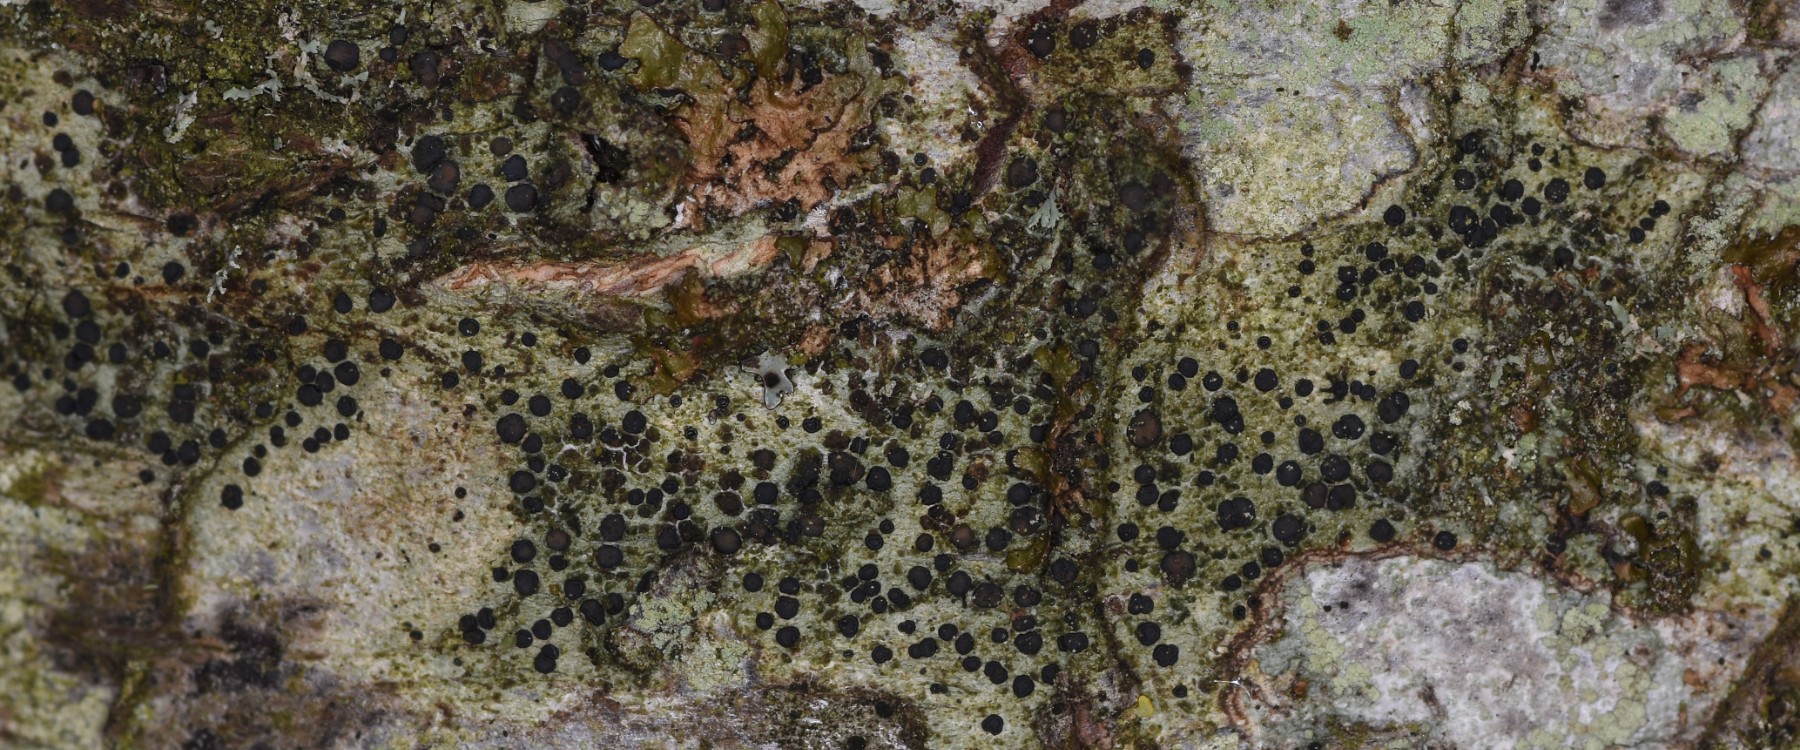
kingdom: Fungi
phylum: Ascomycota
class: Lecanoromycetes
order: Lecanorales
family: Lecanoraceae
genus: Lecidella
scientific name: Lecidella elaeochroma
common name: grågrøn skivelav
